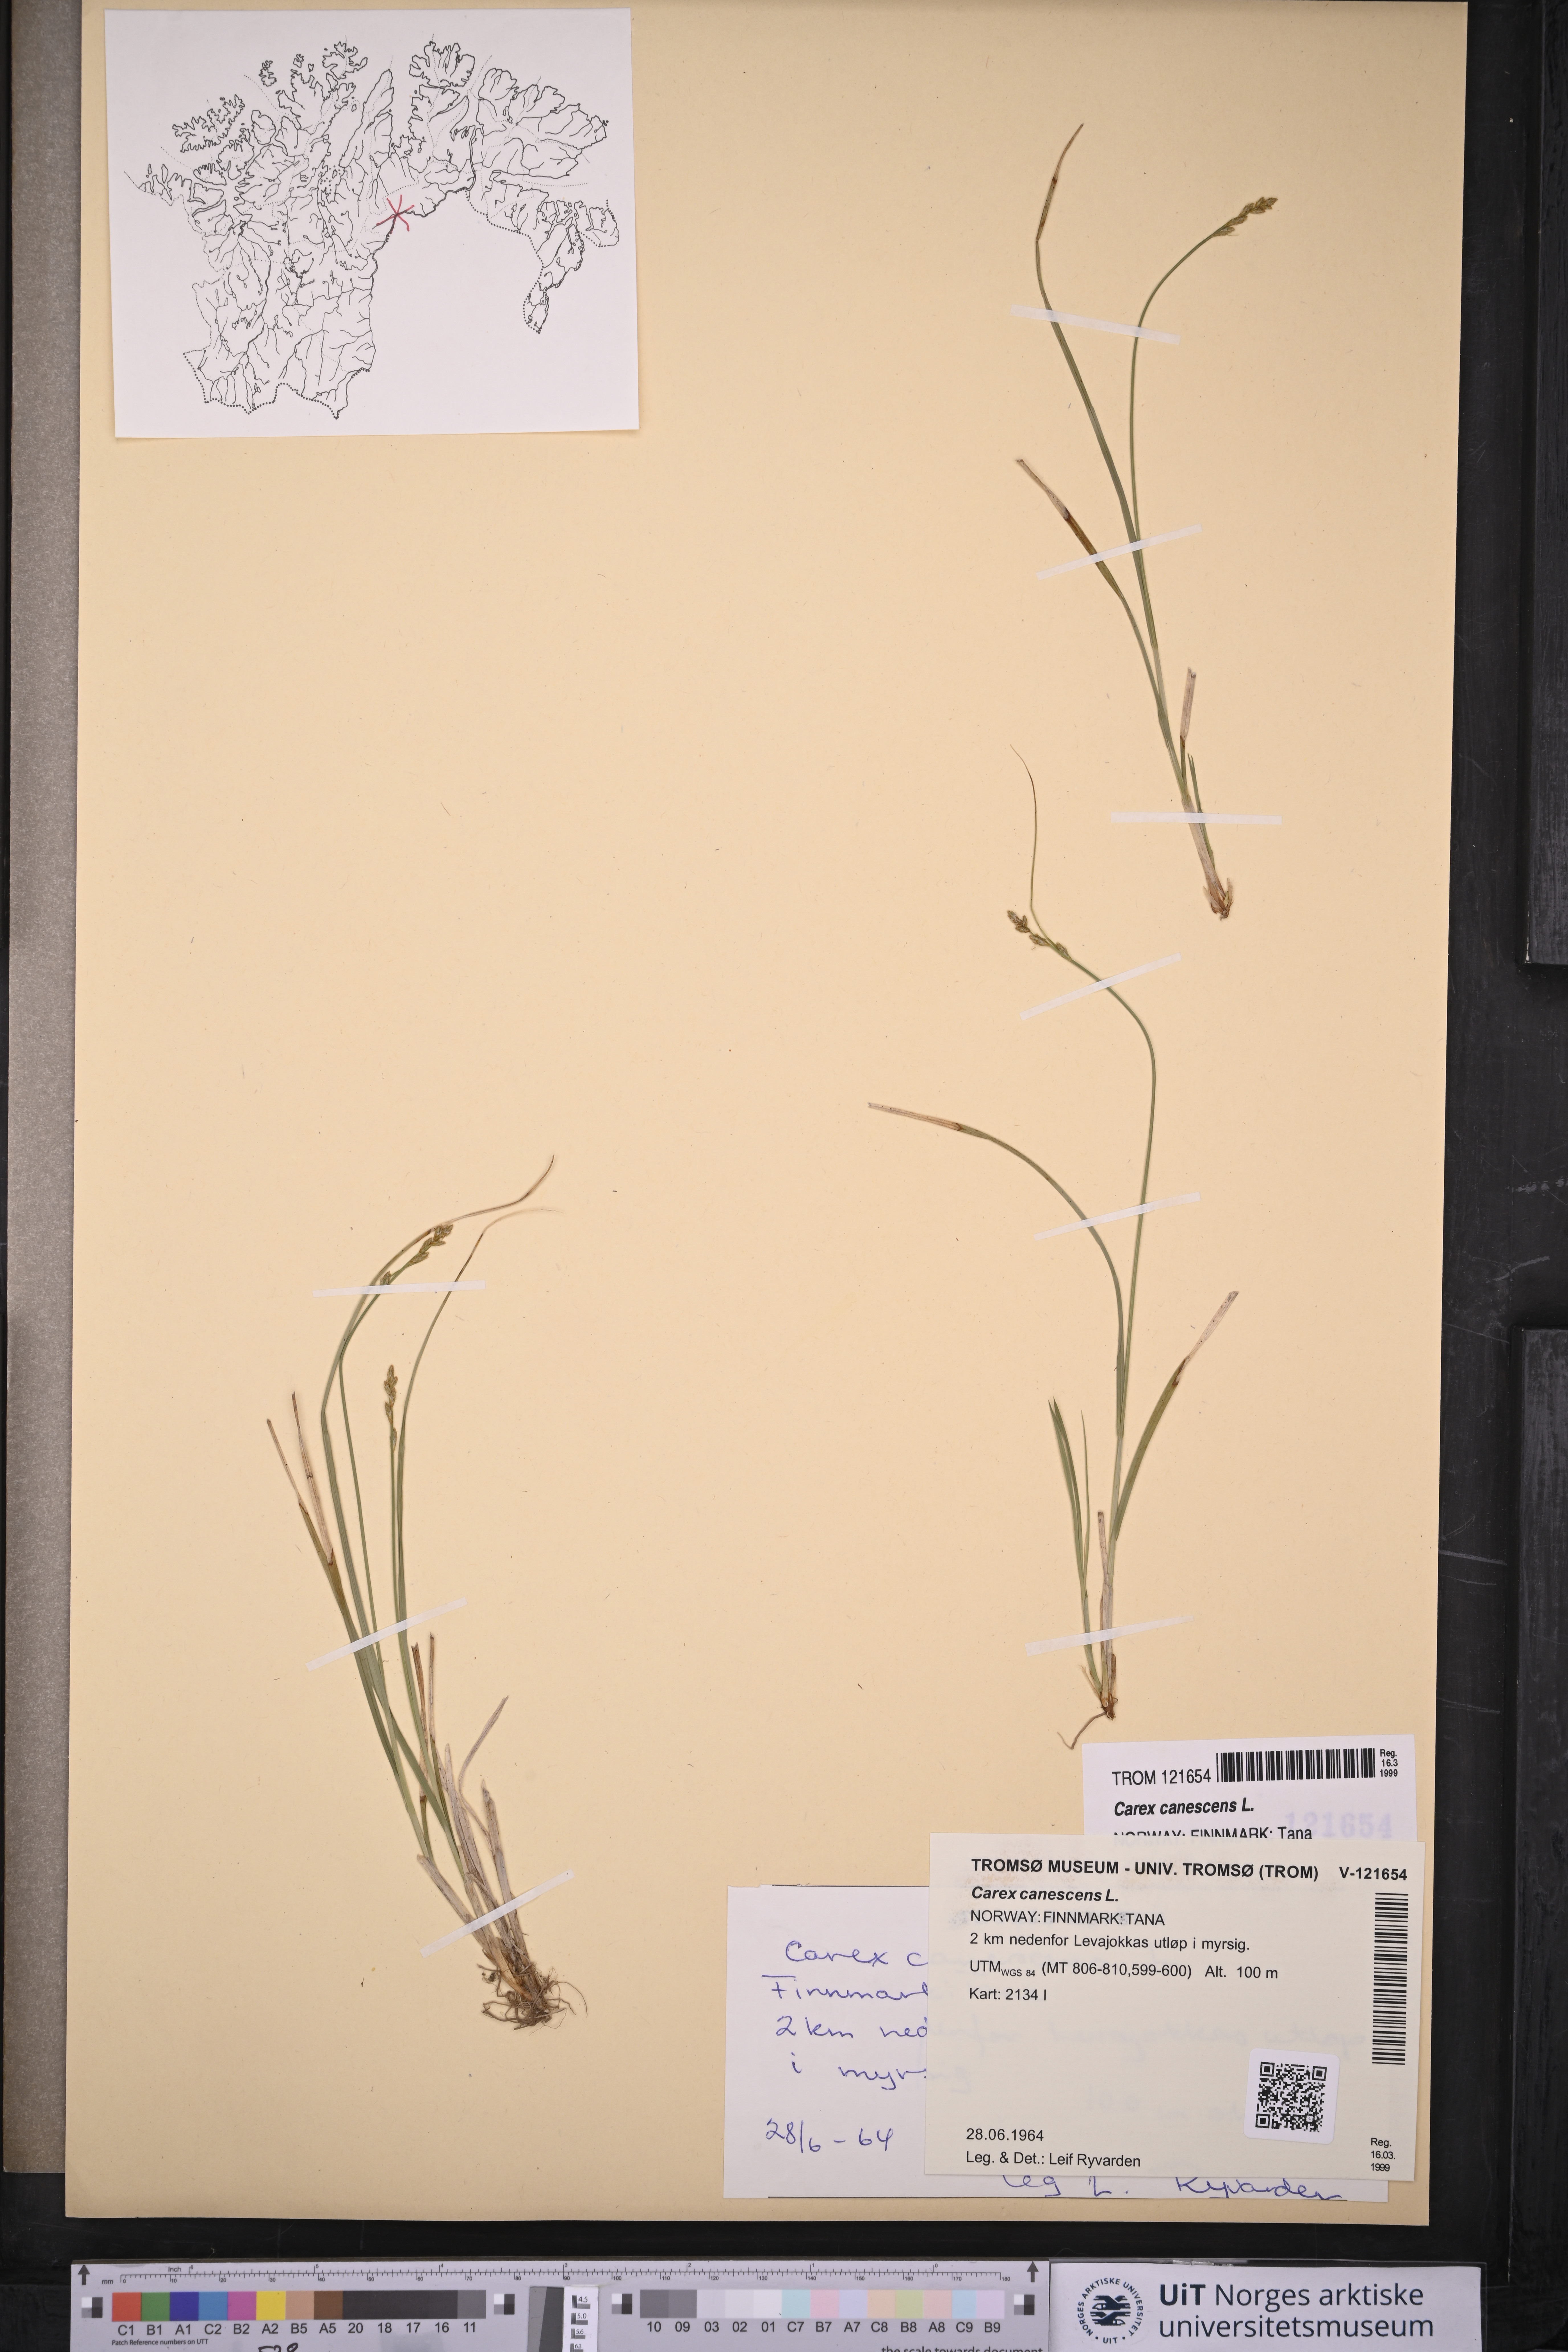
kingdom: Plantae
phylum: Tracheophyta
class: Liliopsida
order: Poales
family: Cyperaceae
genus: Carex
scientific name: Carex canescens
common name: White sedge
